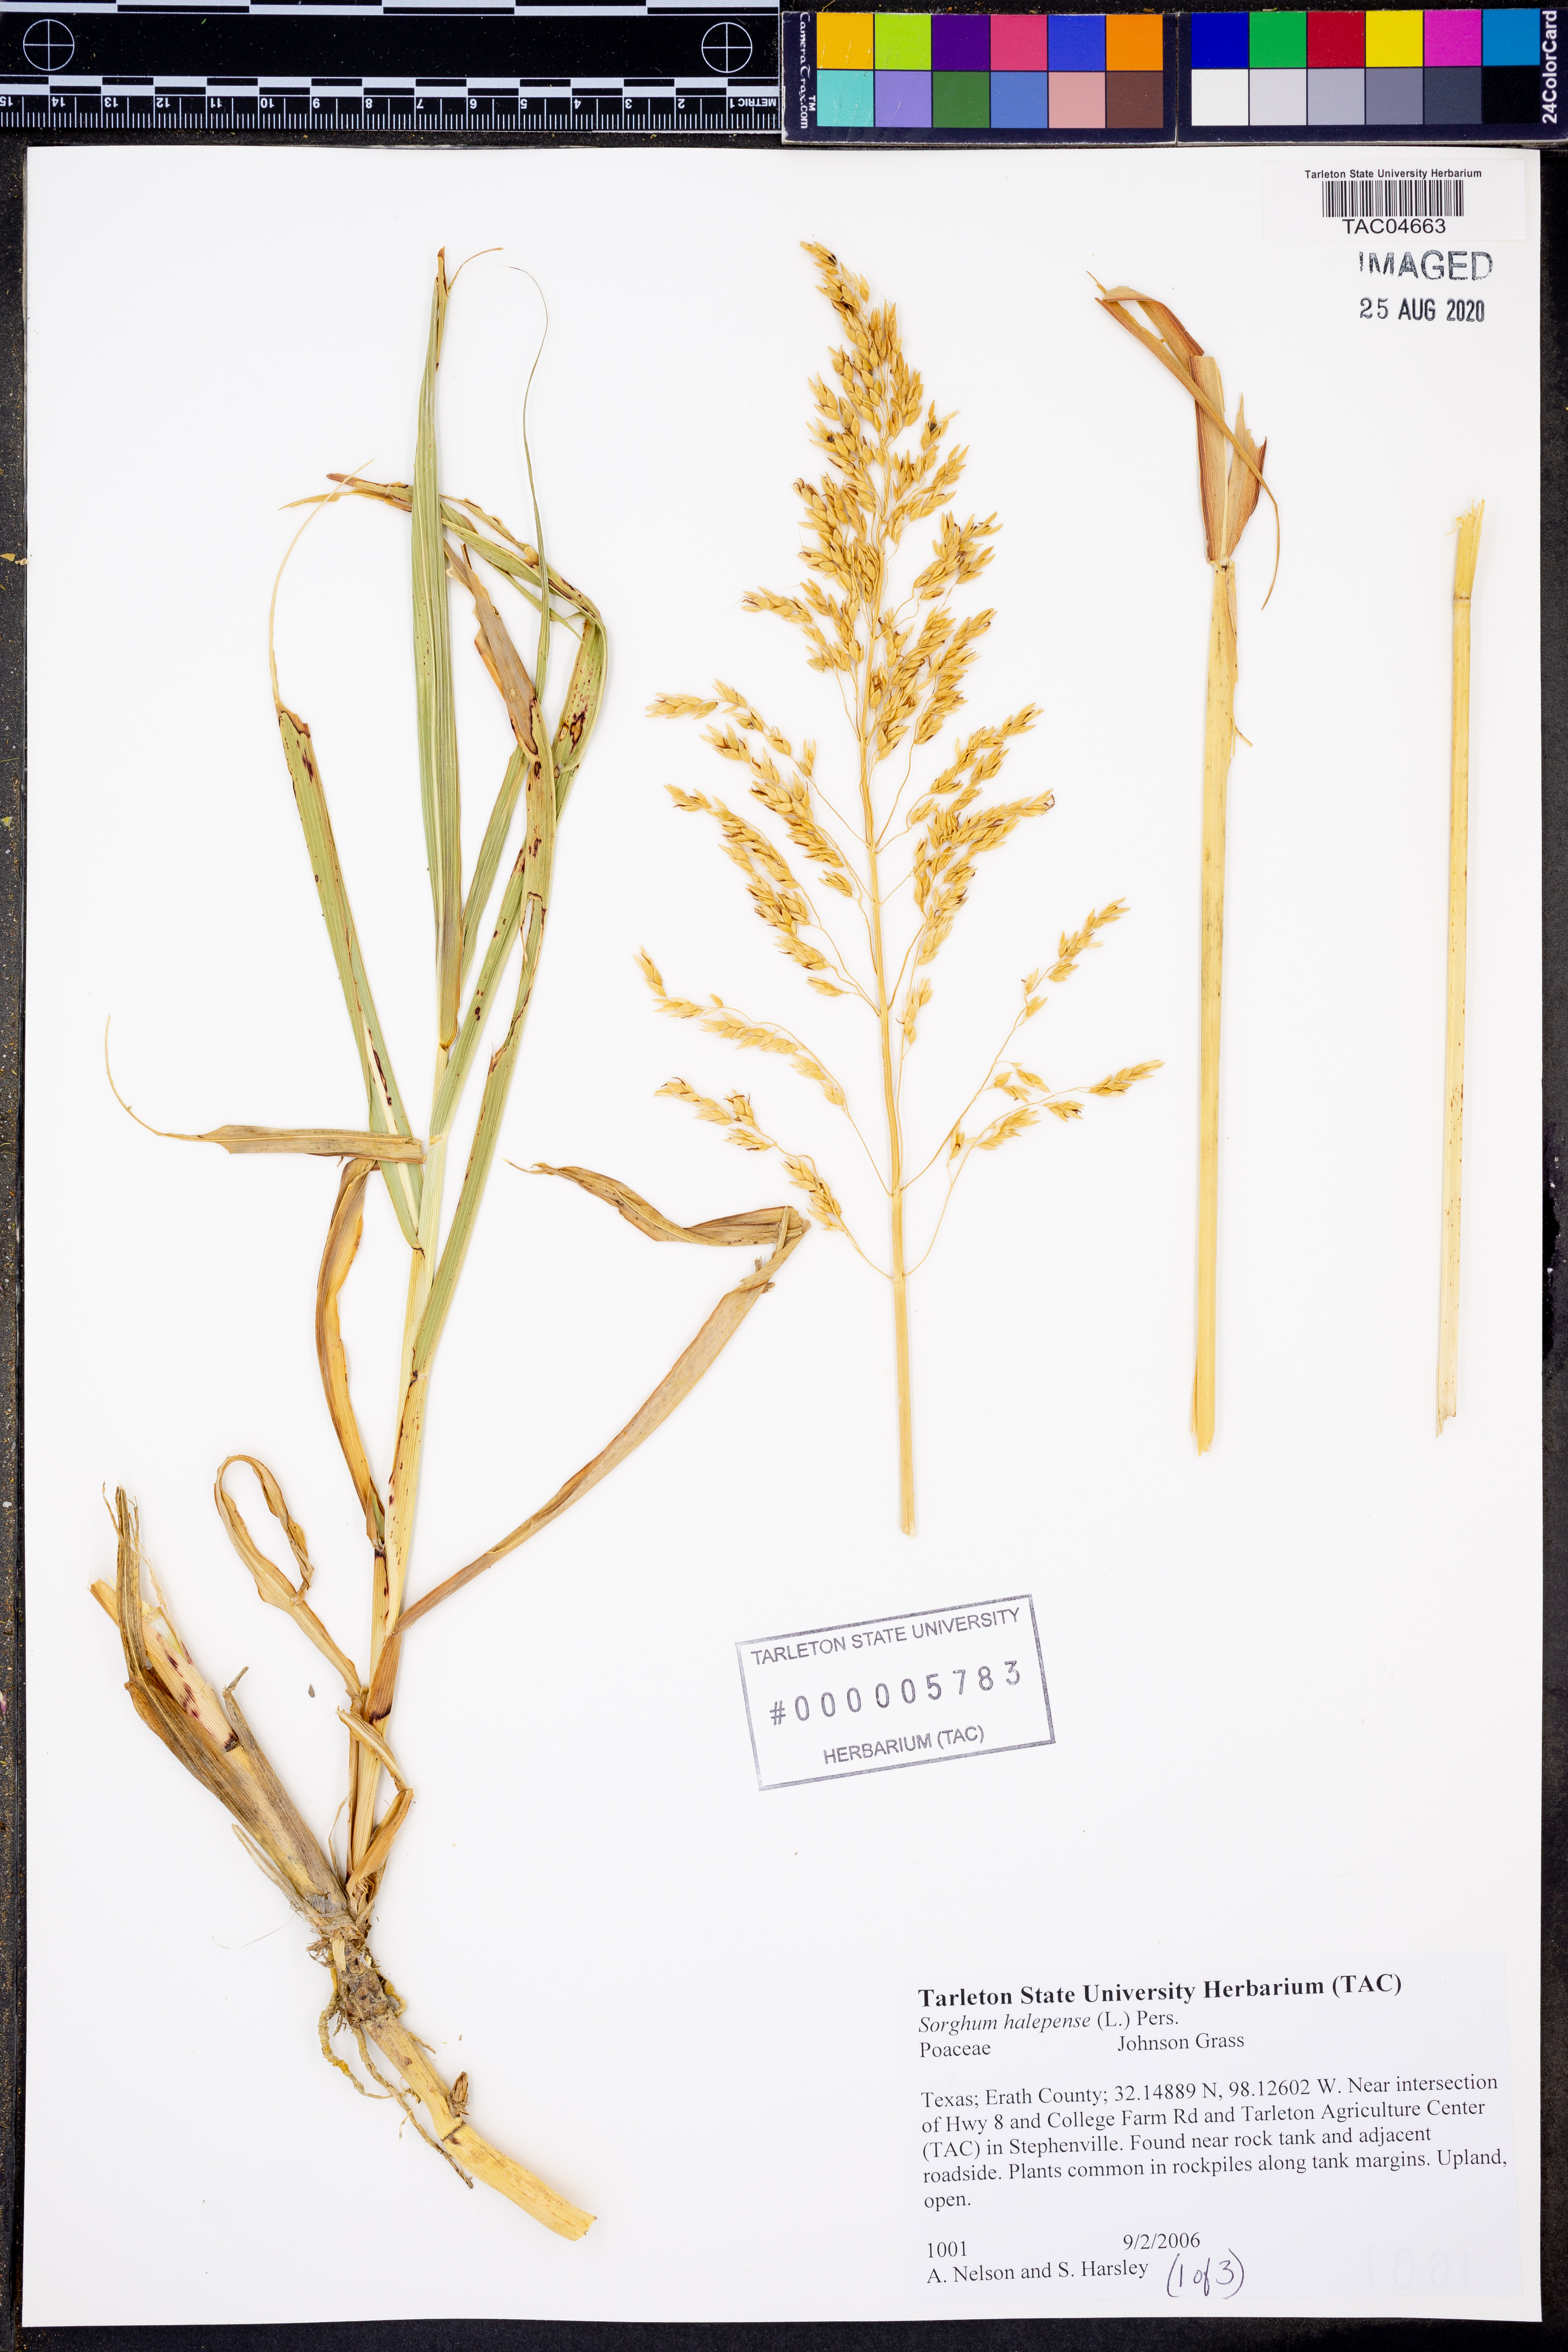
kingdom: Plantae
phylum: Tracheophyta
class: Liliopsida
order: Poales
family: Poaceae
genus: Sorghum
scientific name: Sorghum halepense
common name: Johnson-grass
